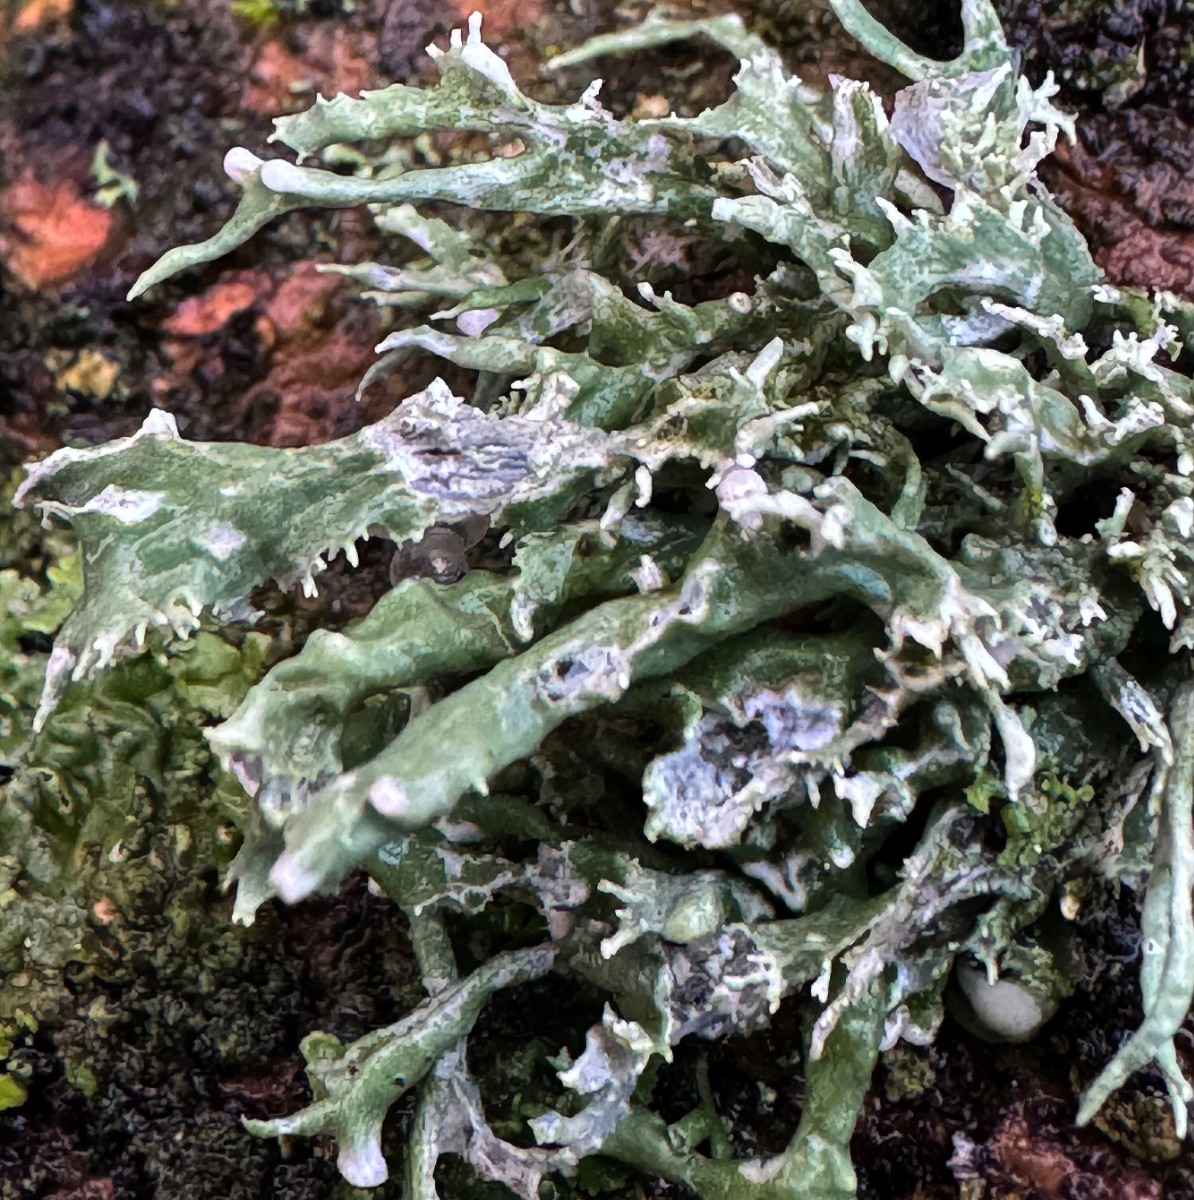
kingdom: Fungi
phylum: Ascomycota
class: Lecanoromycetes
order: Lecanorales
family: Ramalinaceae
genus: Ramalina
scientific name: Ramalina fastigiata
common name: tue-grenlav
